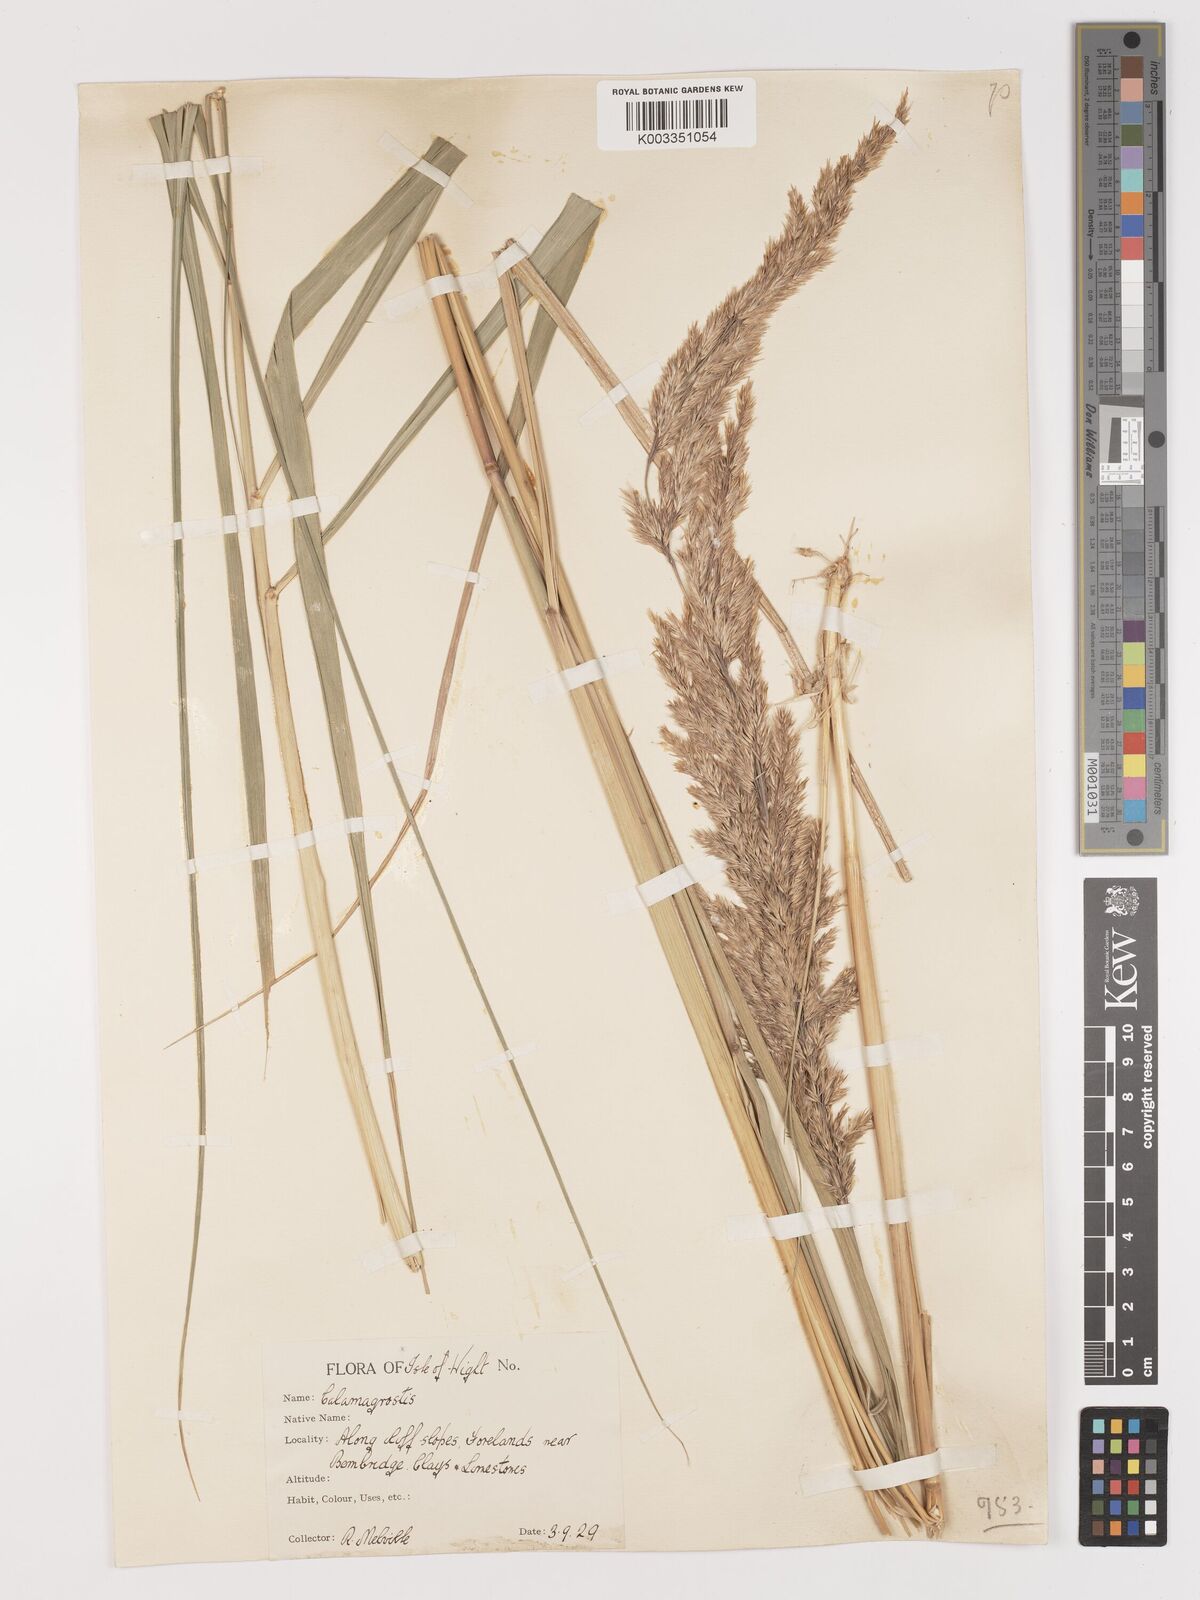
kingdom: Plantae
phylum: Tracheophyta
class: Liliopsida
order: Poales
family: Poaceae
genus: Calamagrostis
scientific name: Calamagrostis epigejos
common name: Wood small-reed
